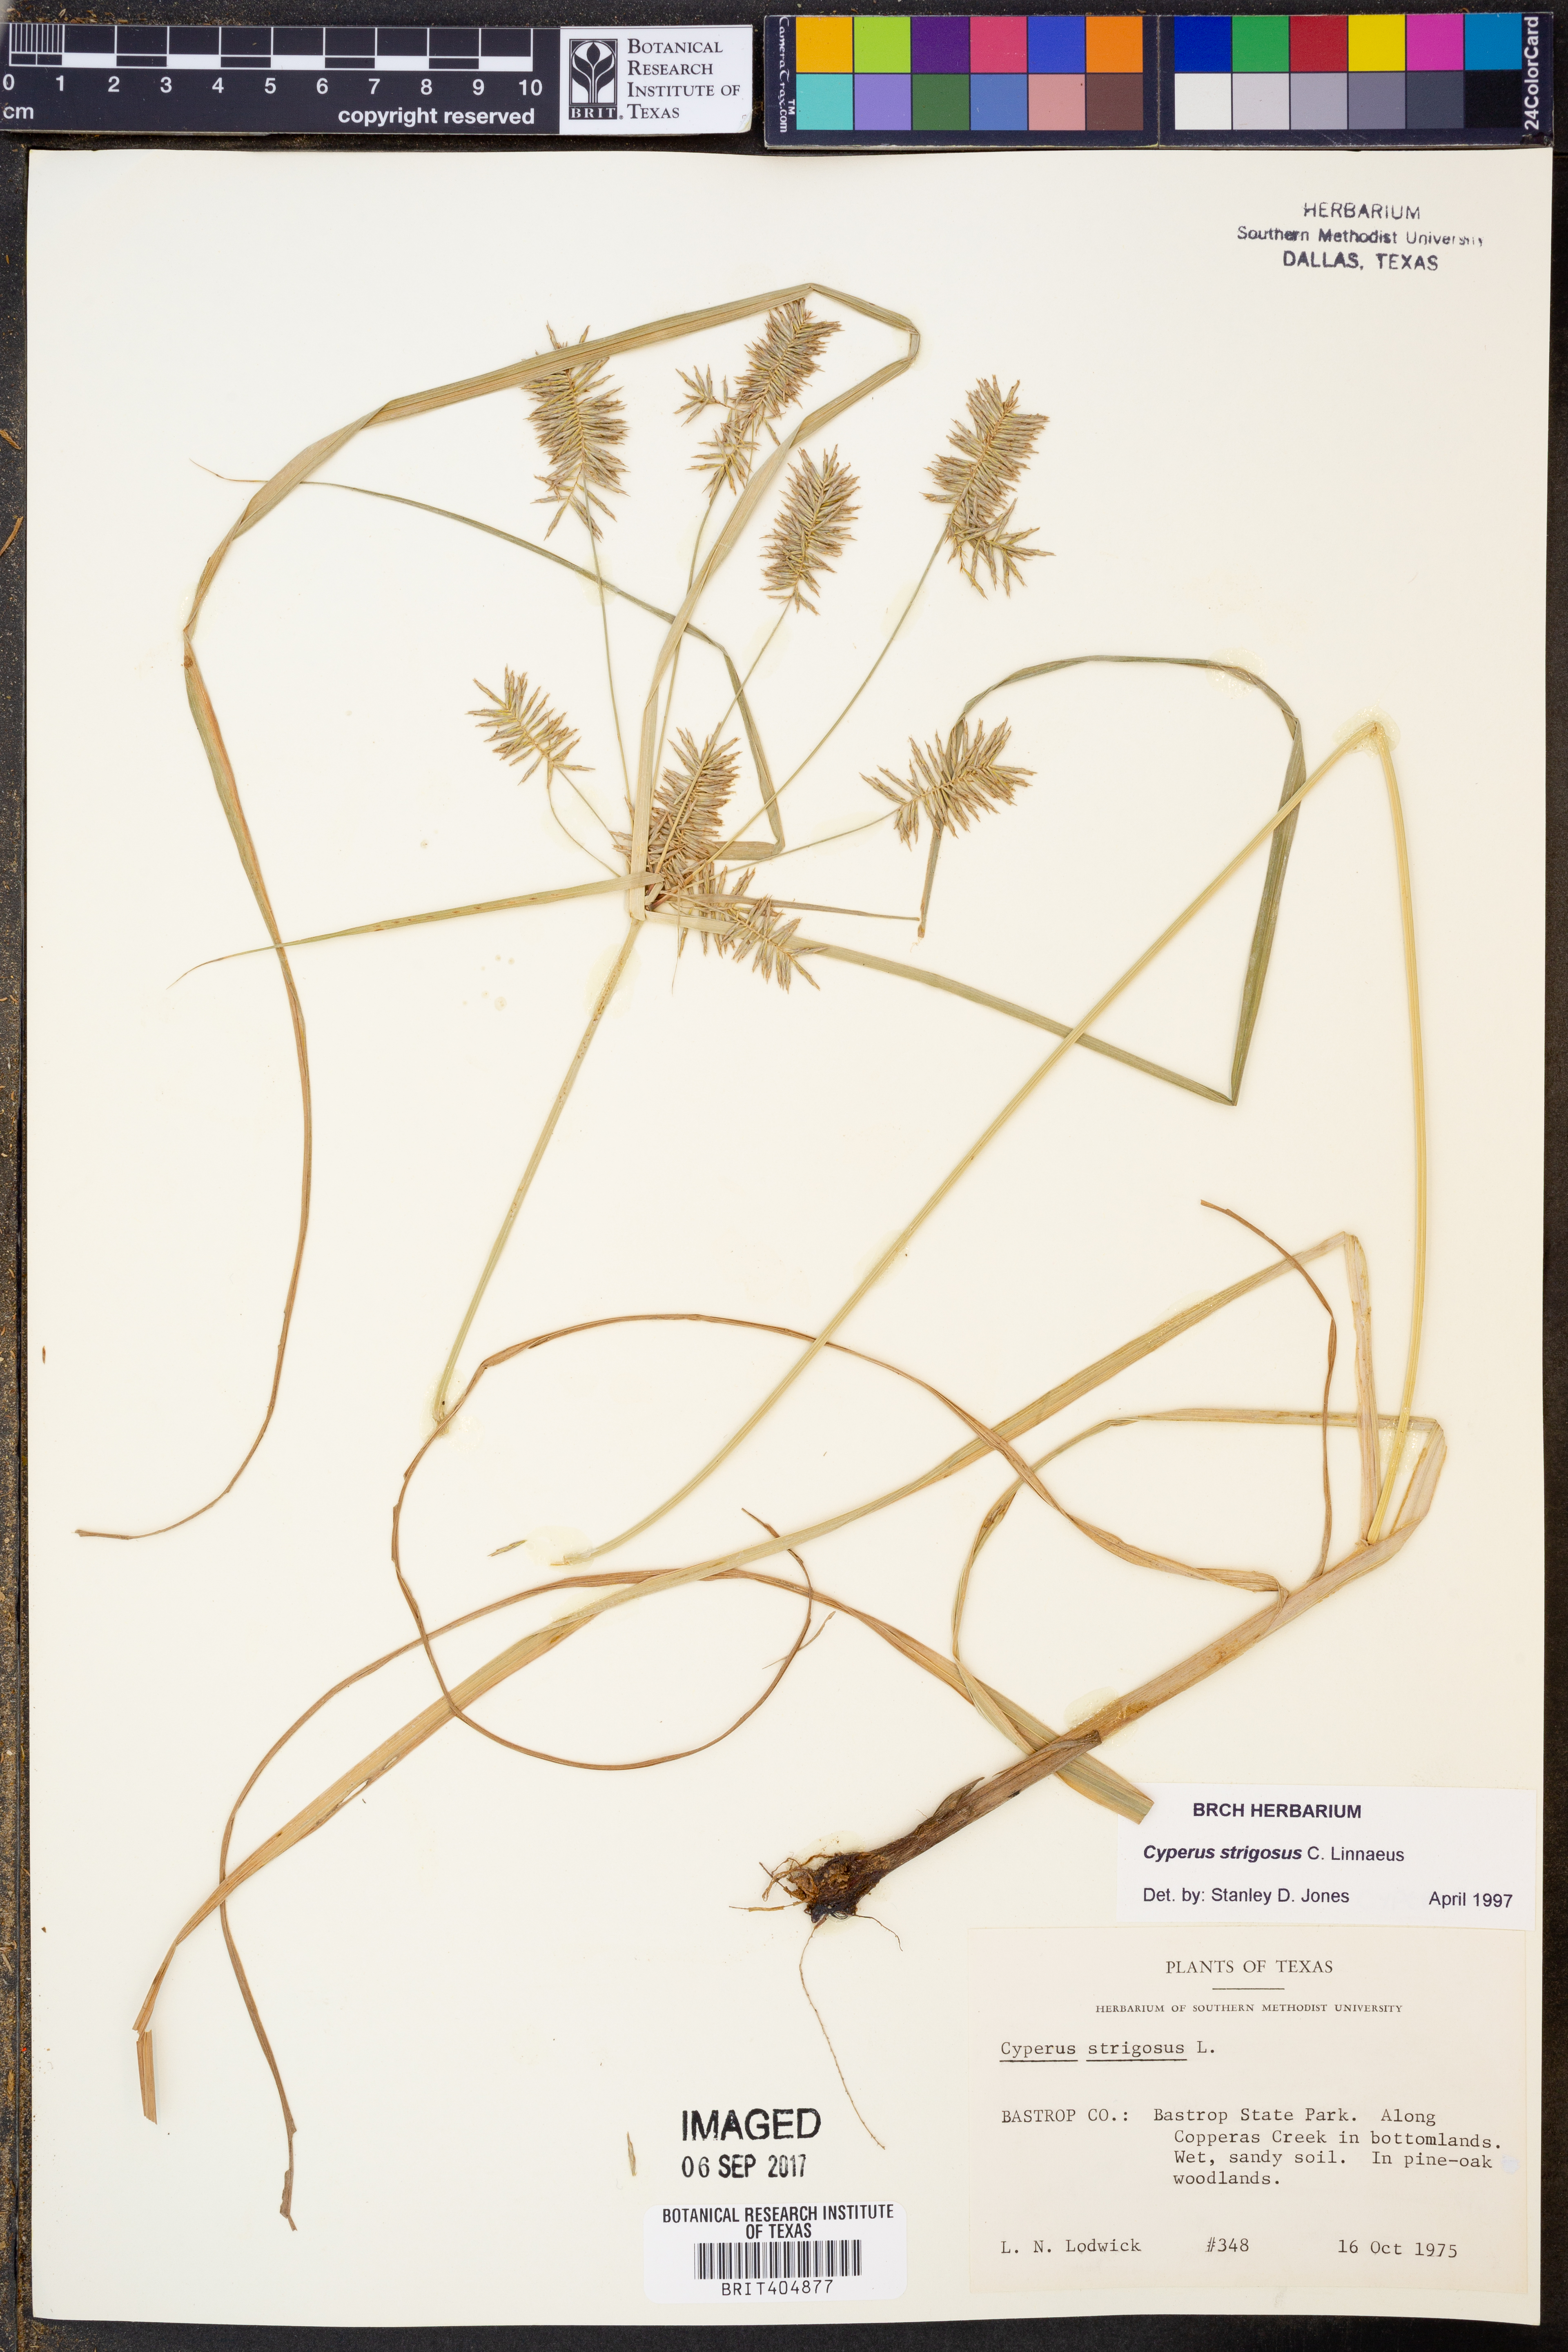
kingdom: Plantae
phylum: Tracheophyta
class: Liliopsida
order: Poales
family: Cyperaceae
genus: Cyperus
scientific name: Cyperus strigosus
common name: False nutsedge
